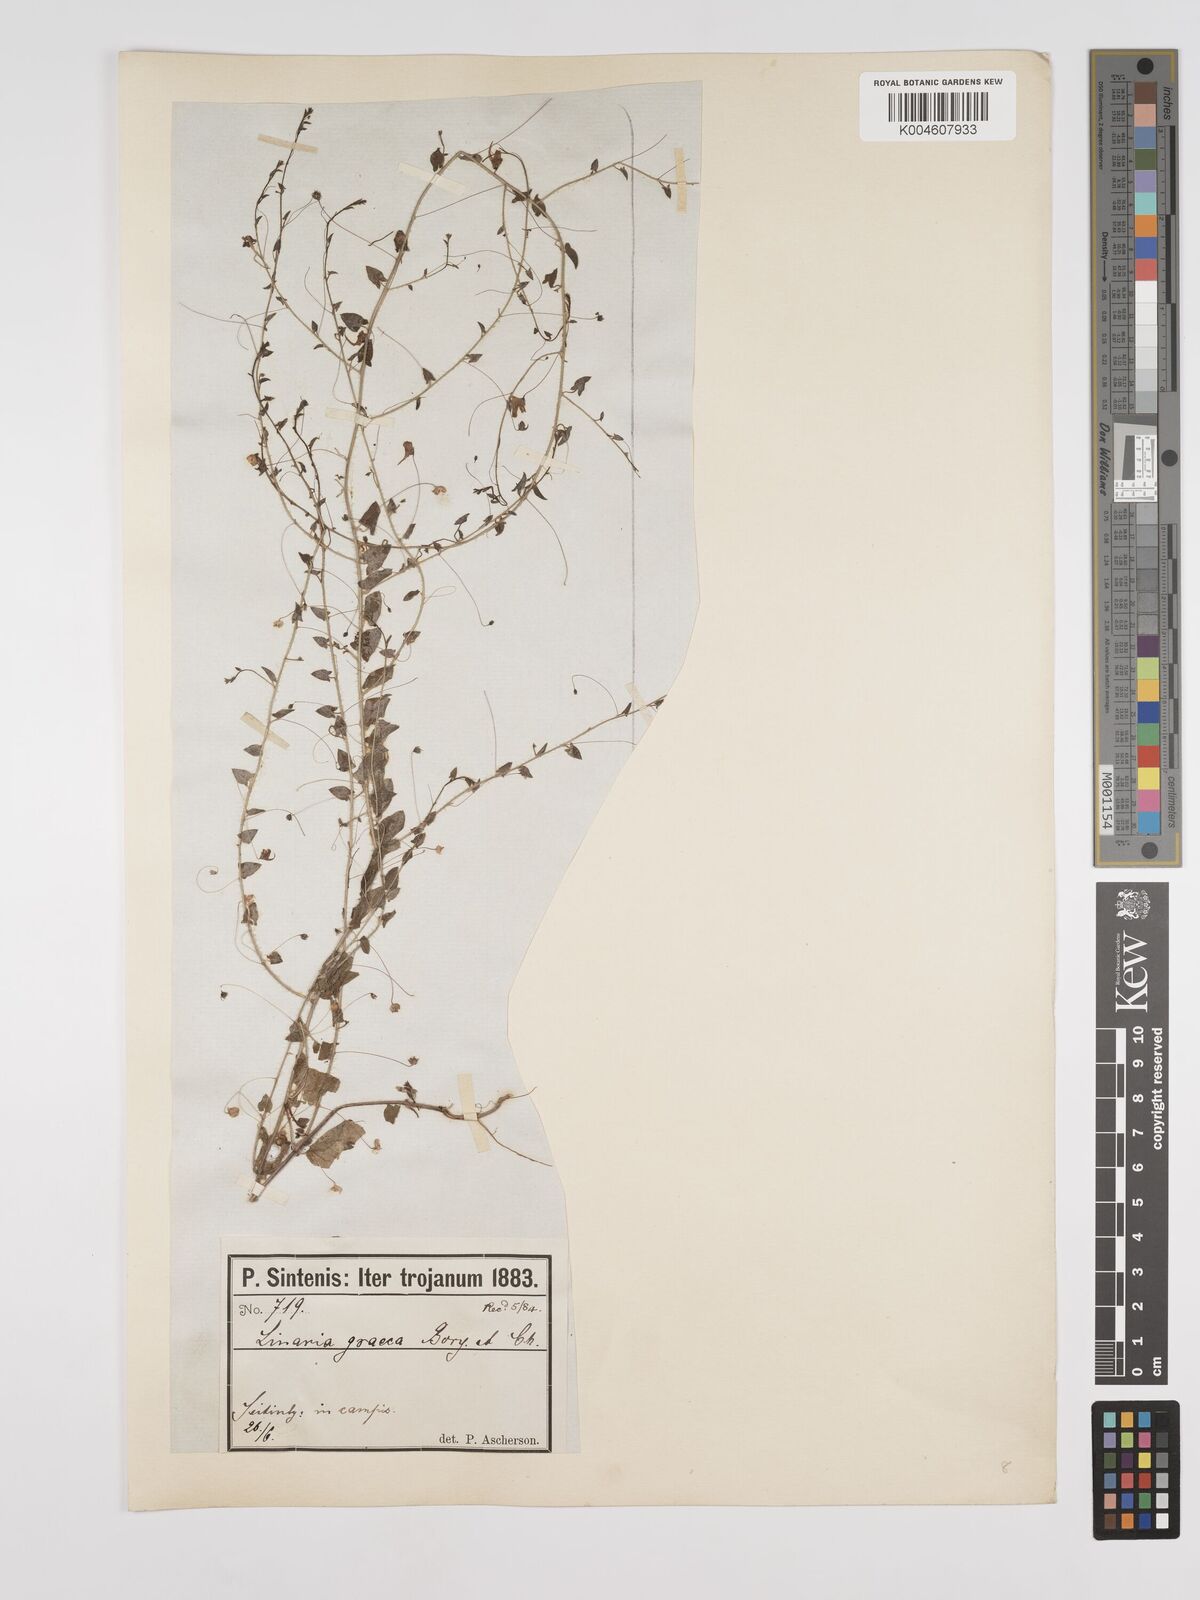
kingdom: Plantae
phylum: Tracheophyta
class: Magnoliopsida
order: Lamiales
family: Plantaginaceae
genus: Kickxia
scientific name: Kickxia commutata
